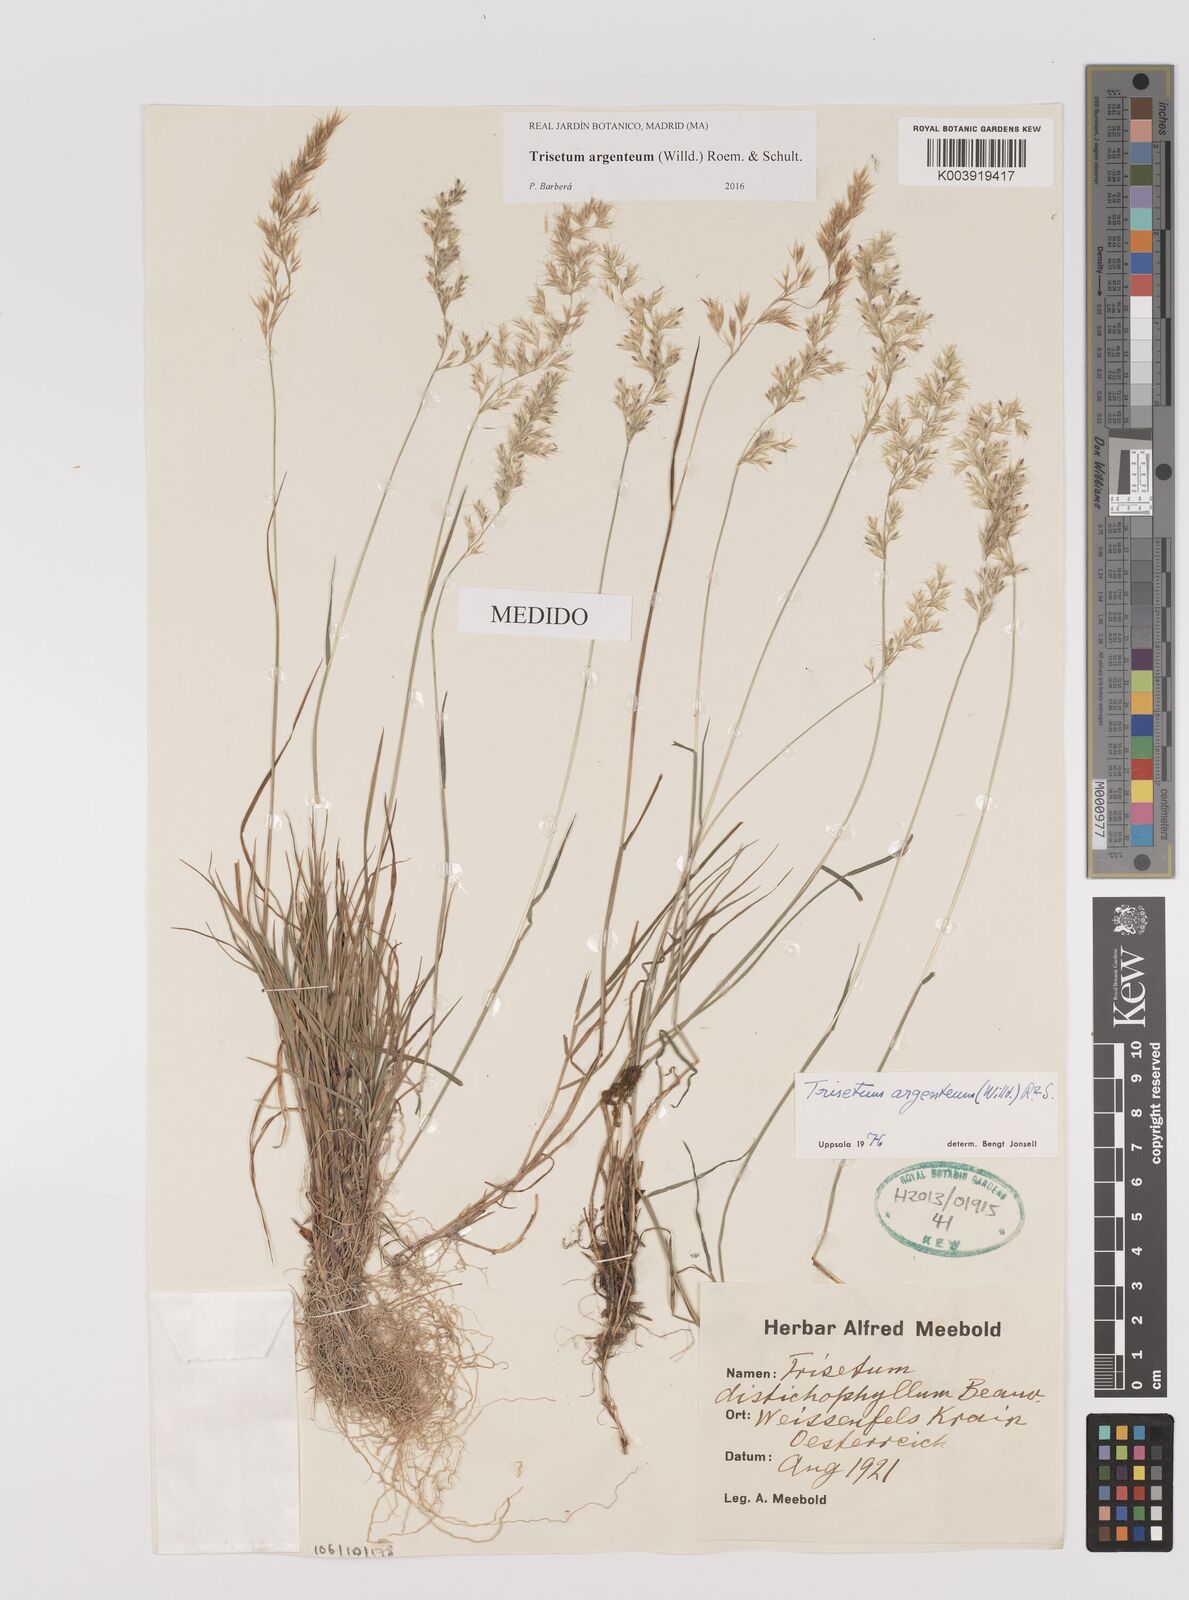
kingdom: Plantae
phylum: Tracheophyta
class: Liliopsida
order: Poales
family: Poaceae
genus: Trisetum
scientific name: Trisetum argenteum
